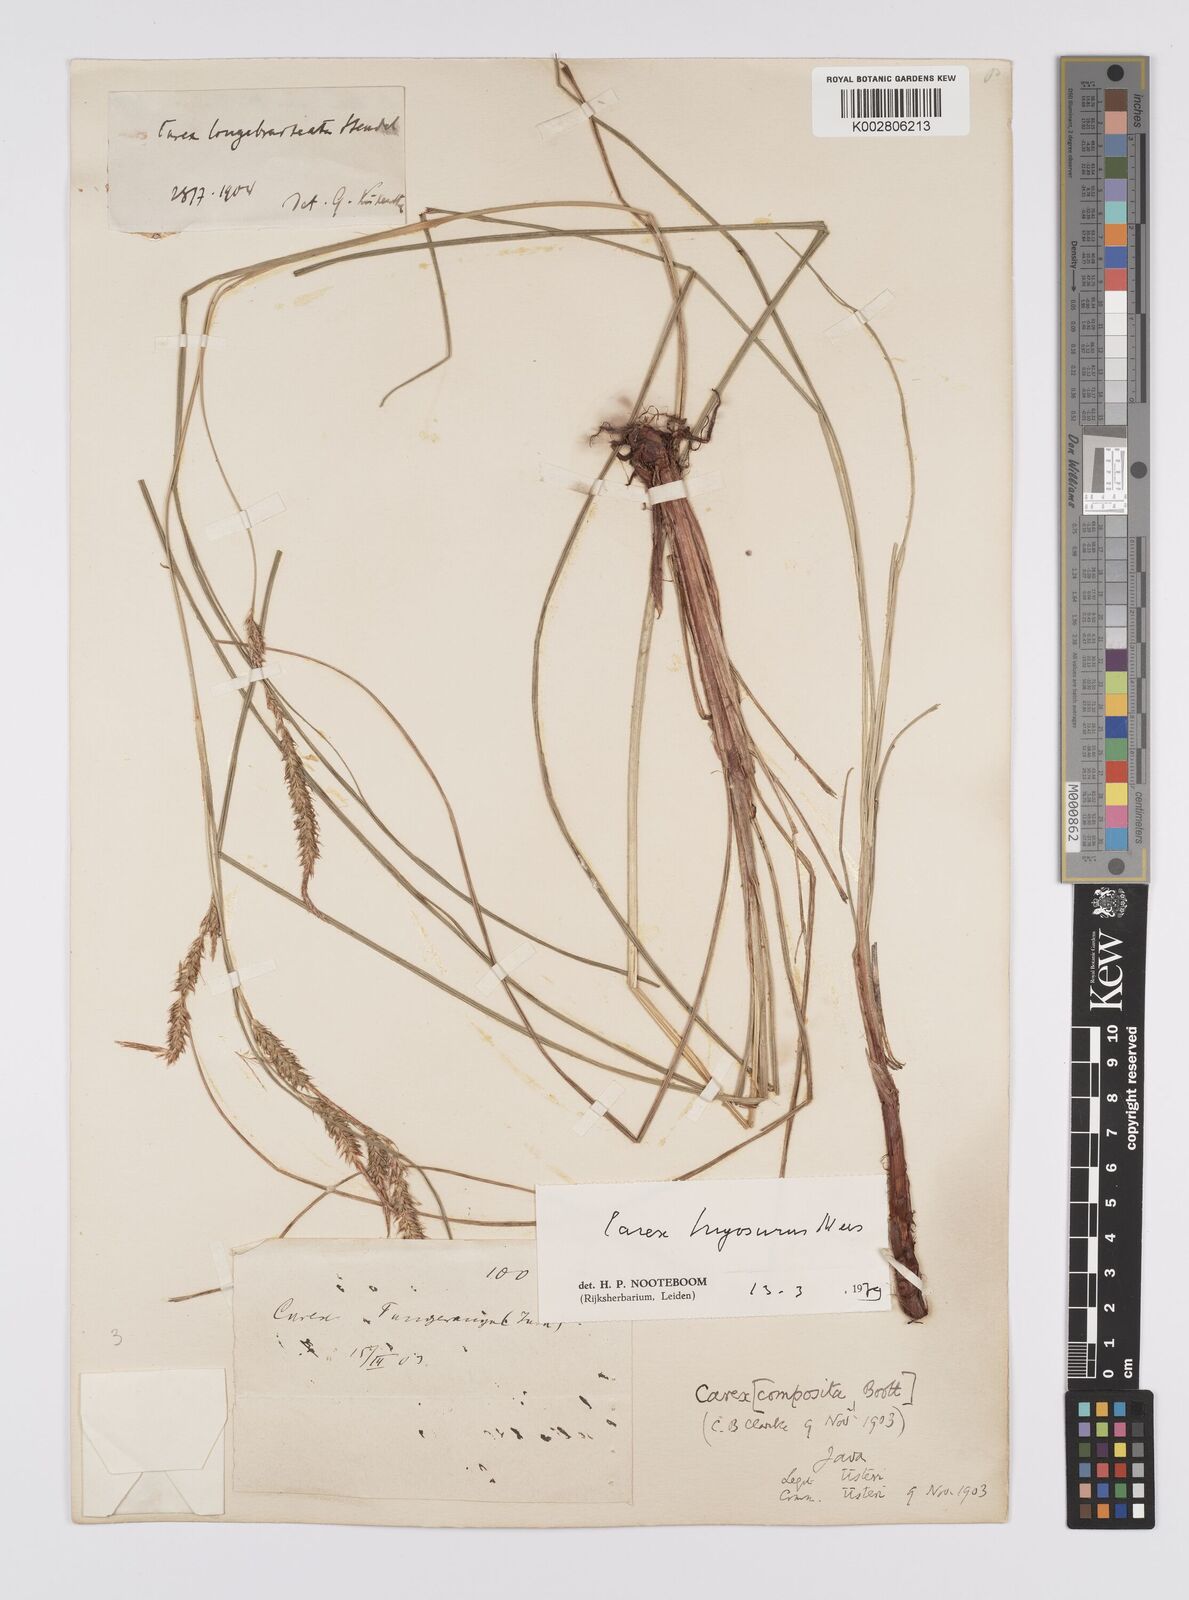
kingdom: Plantae
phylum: Tracheophyta
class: Liliopsida
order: Poales
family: Cyperaceae
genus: Carex
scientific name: Carex myosurus
